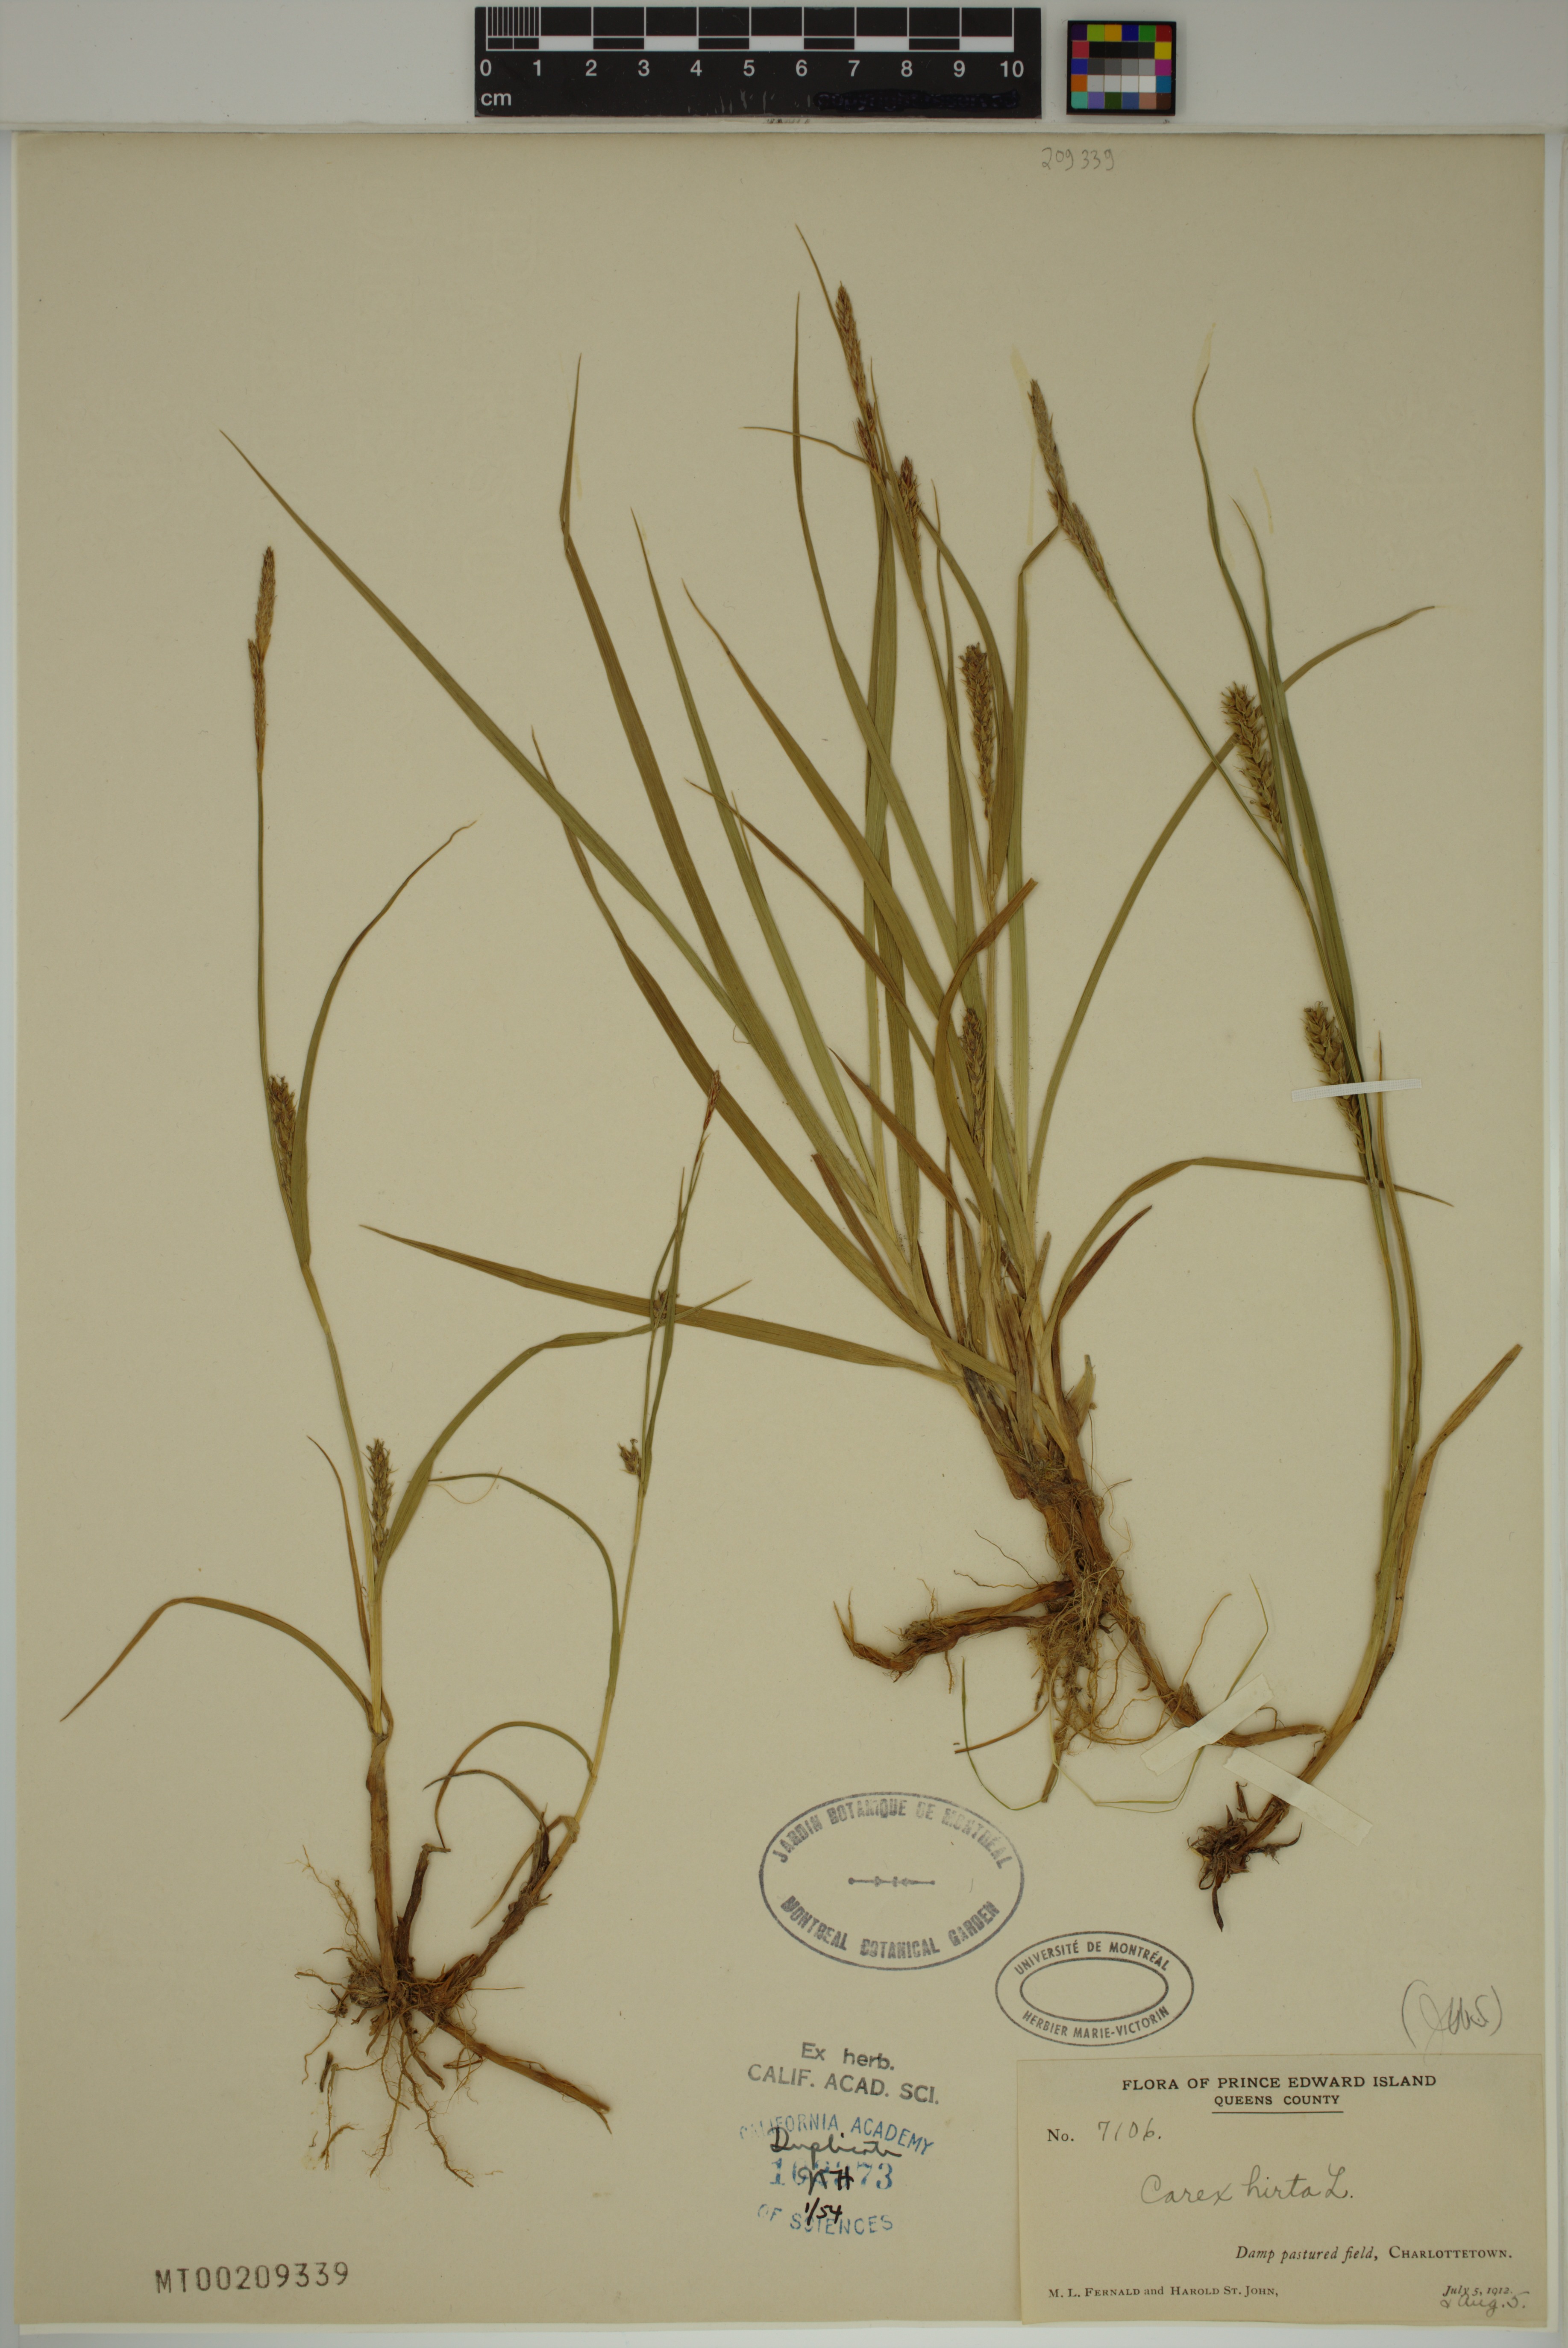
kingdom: Plantae
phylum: Tracheophyta
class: Liliopsida
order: Poales
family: Cyperaceae
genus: Carex
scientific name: Carex hirta
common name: Hairy sedge
